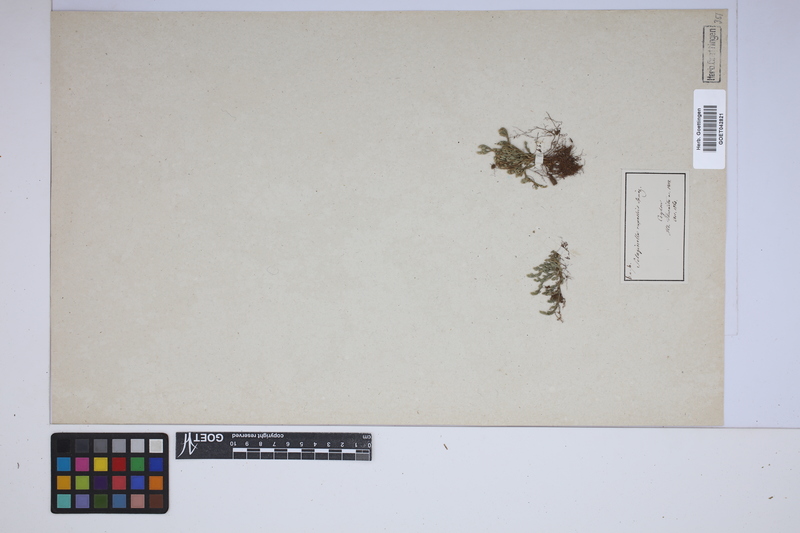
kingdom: Plantae
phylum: Tracheophyta
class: Lycopodiopsida
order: Selaginellales
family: Selaginellaceae
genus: Selaginella
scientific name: Selaginella rupestris
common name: Dwarf spikemoss
